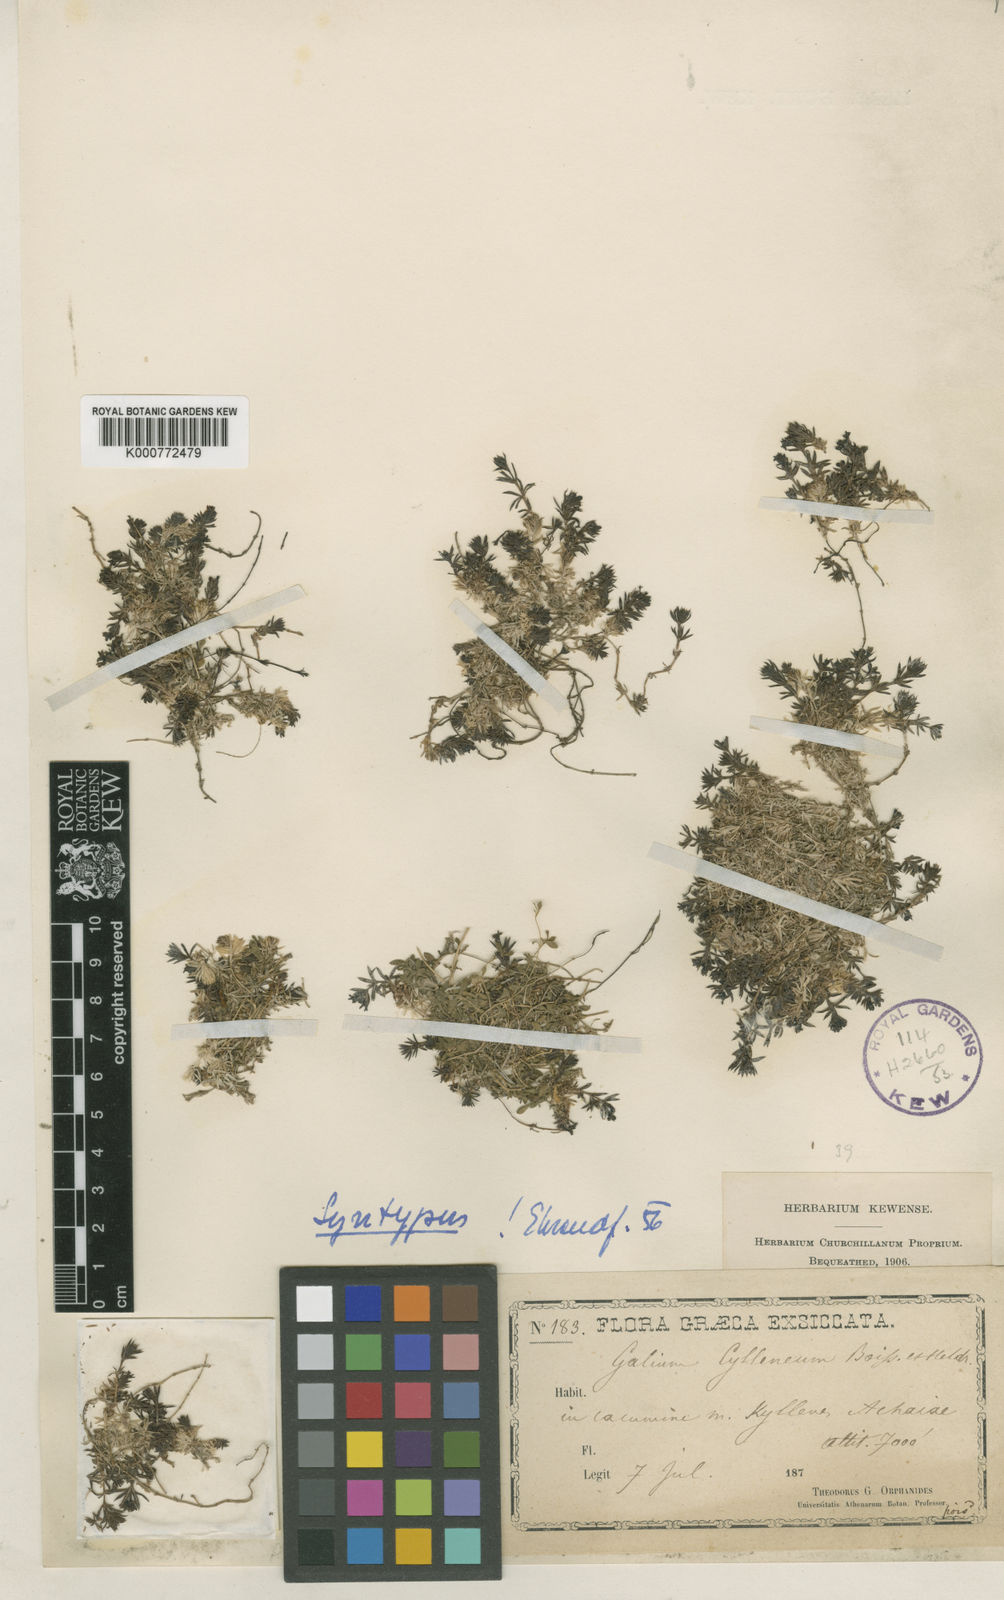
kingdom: Plantae
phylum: Tracheophyta
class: Magnoliopsida
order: Gentianales
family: Rubiaceae
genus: Galium
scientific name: Galium cyllenium
